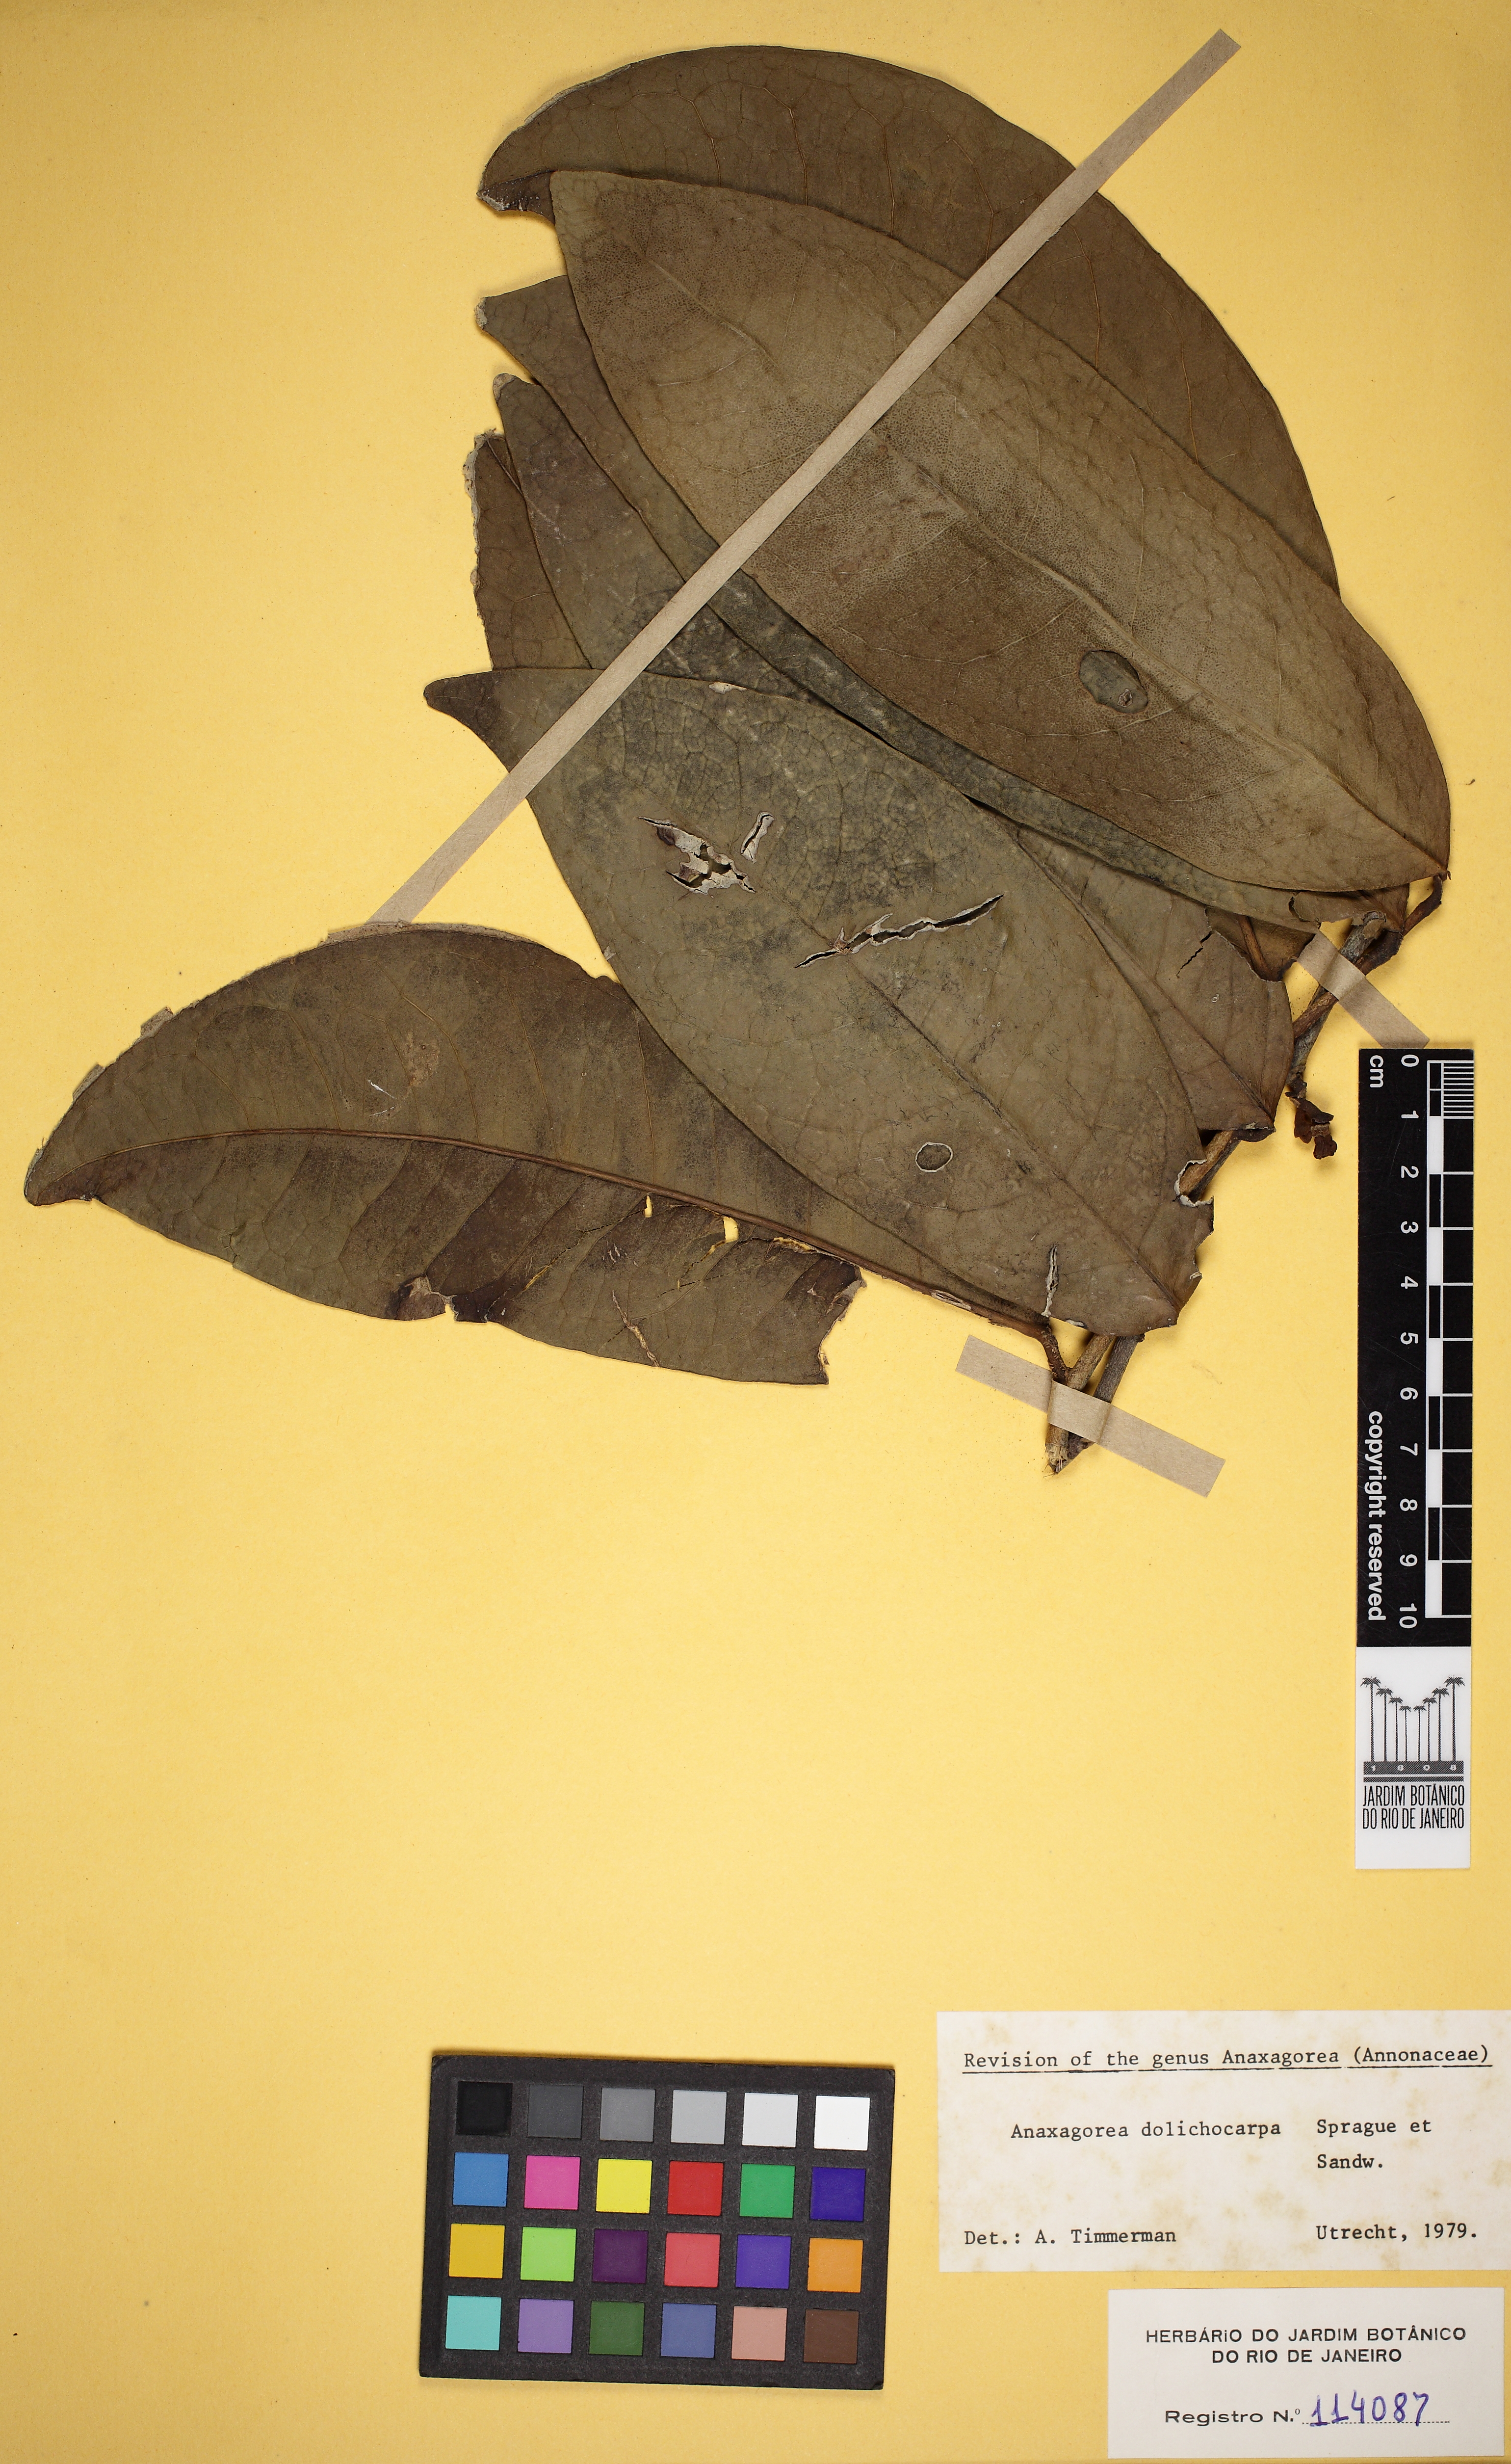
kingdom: Plantae
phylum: Tracheophyta
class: Magnoliopsida
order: Magnoliales
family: Annonaceae
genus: Anaxagorea
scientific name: Anaxagorea dolichocarpa
